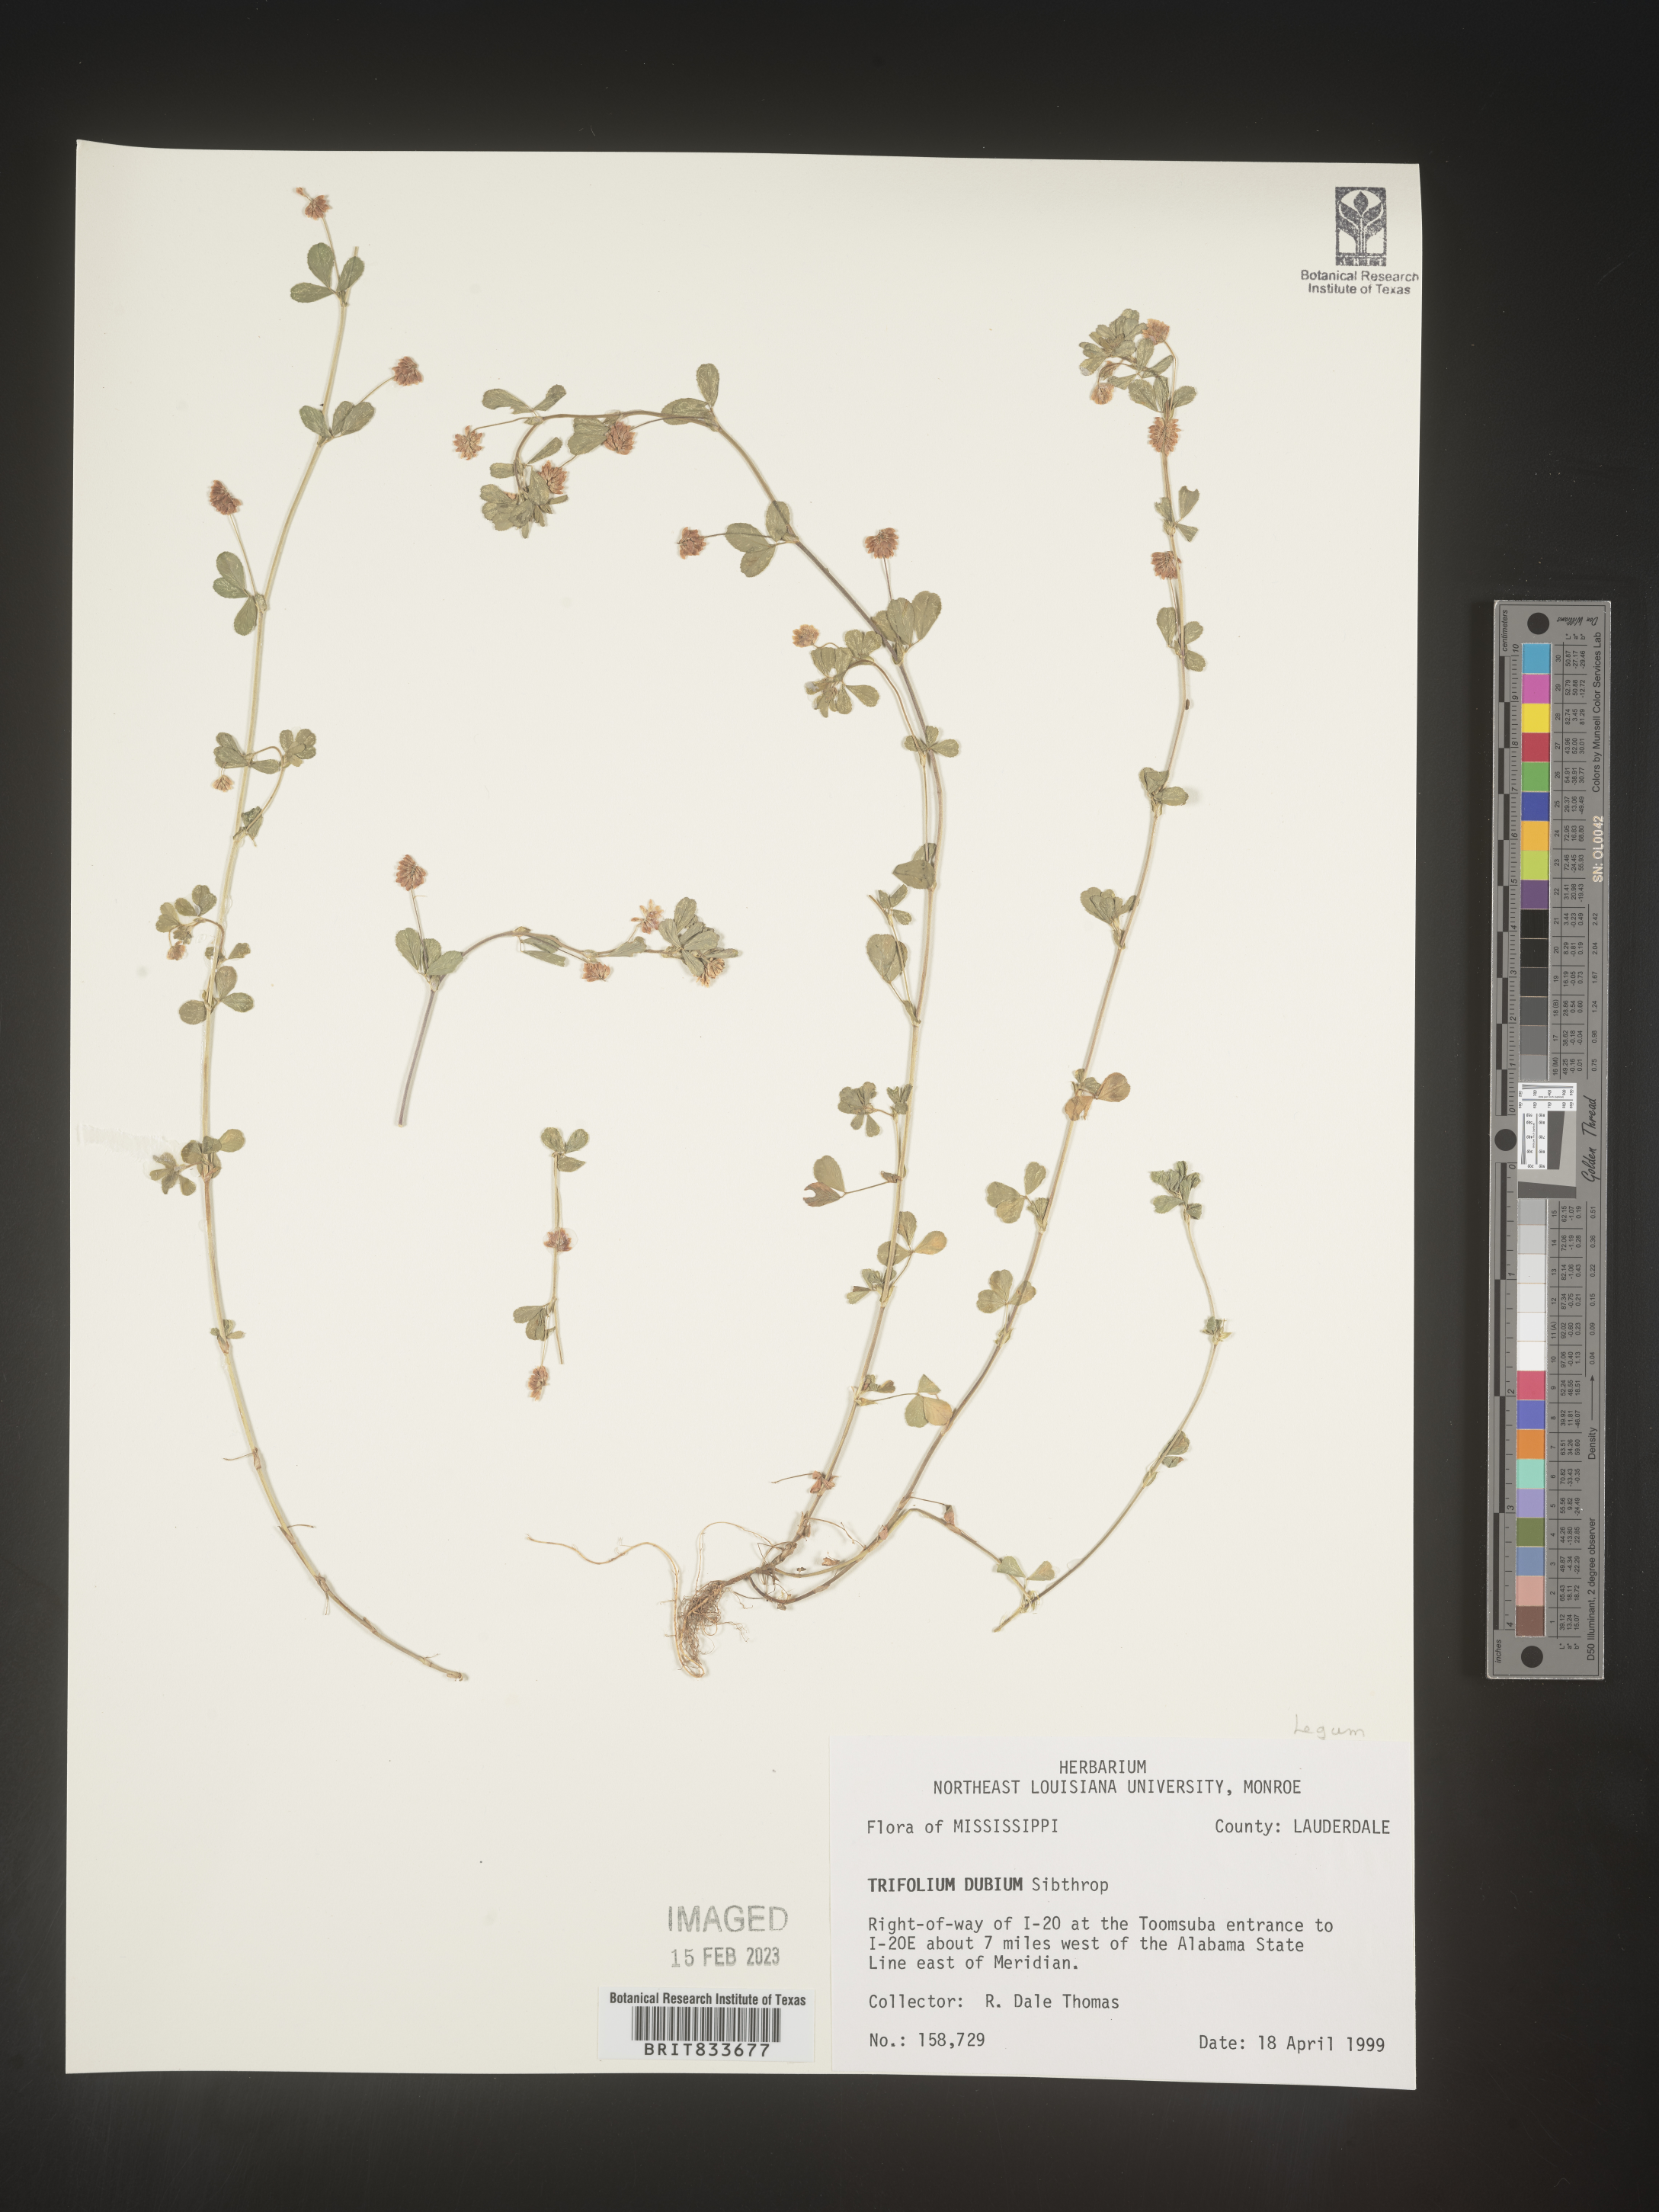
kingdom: Plantae
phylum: Tracheophyta
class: Magnoliopsida
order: Fabales
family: Fabaceae
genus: Trifolium
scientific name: Trifolium dubium
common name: Suckling clover
